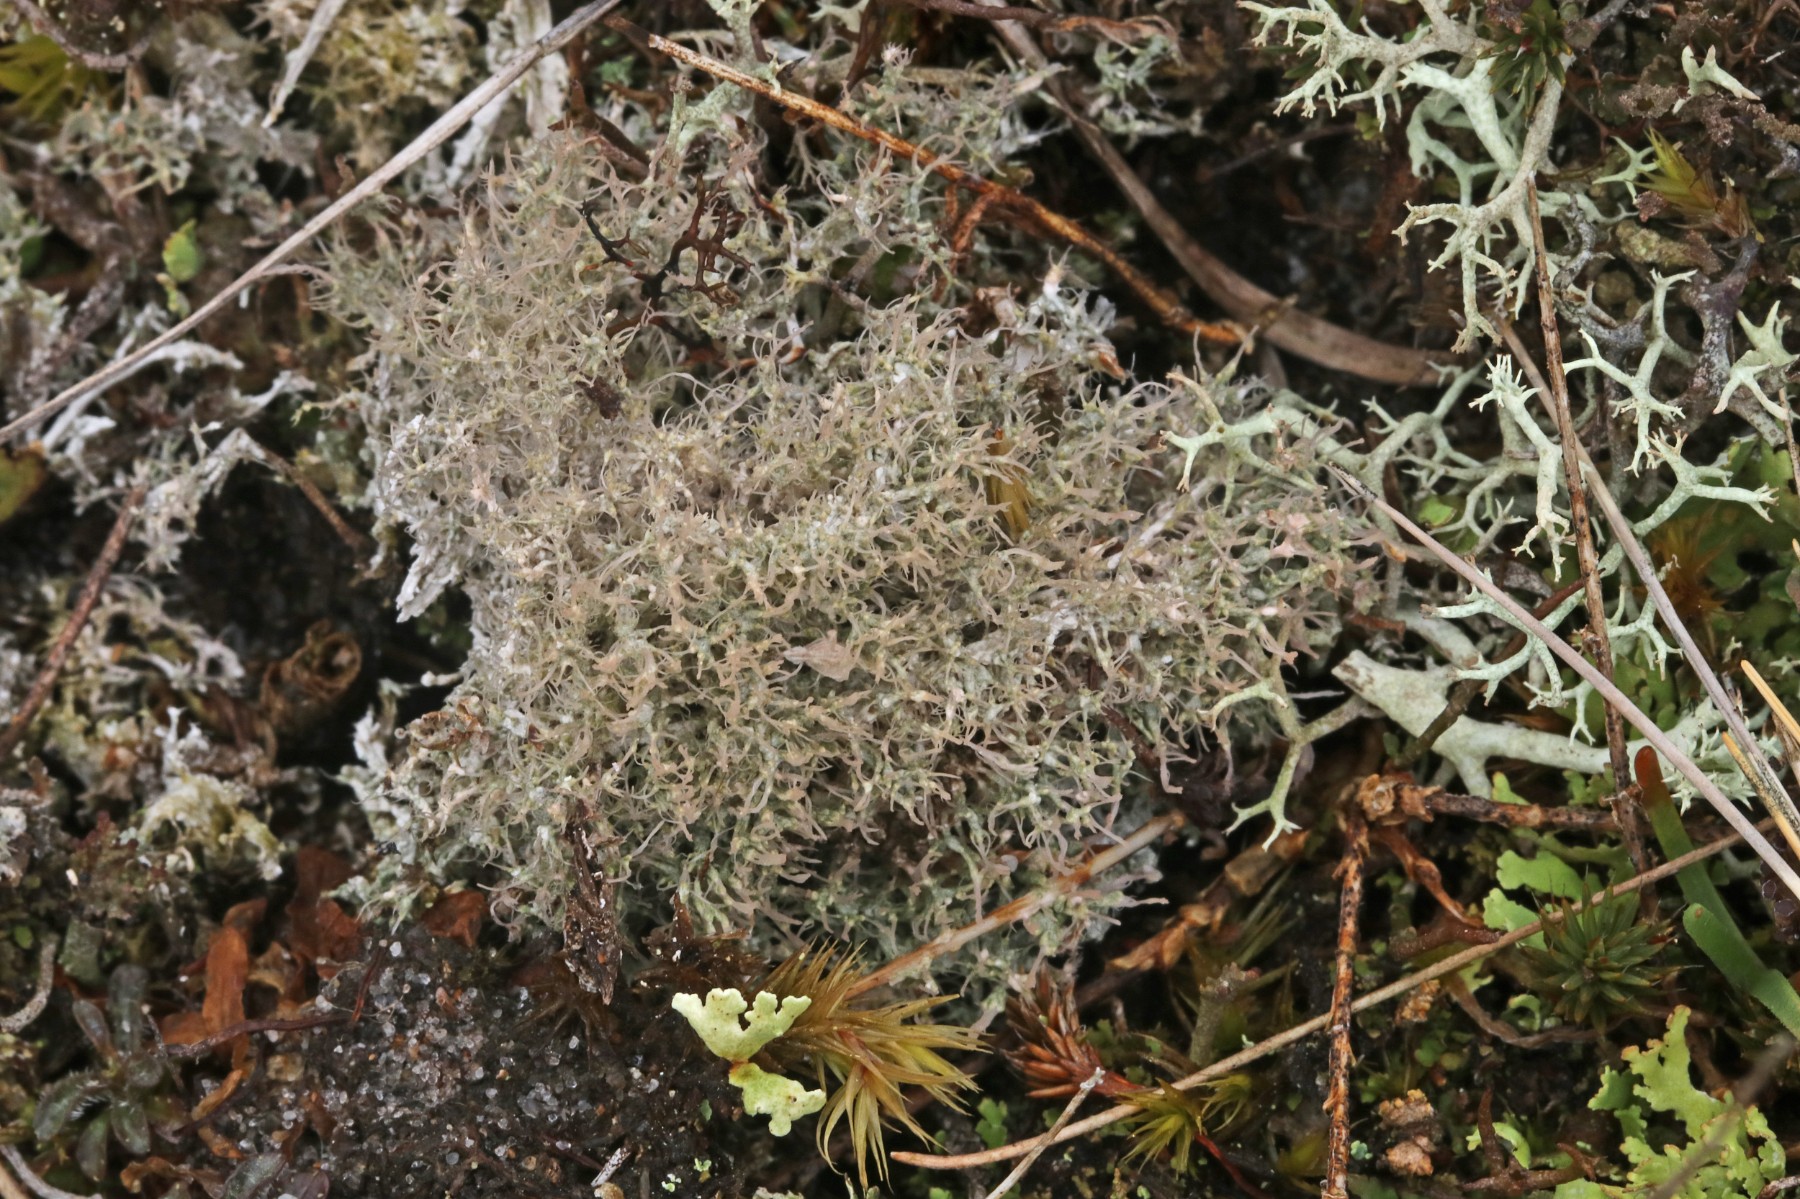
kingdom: Fungi
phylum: Ascomycota
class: Lecanoromycetes
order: Pertusariales
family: Ochrolechiaceae
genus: Ochrolechia
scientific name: Ochrolechia frigida
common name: fjeld-blegskivelav
